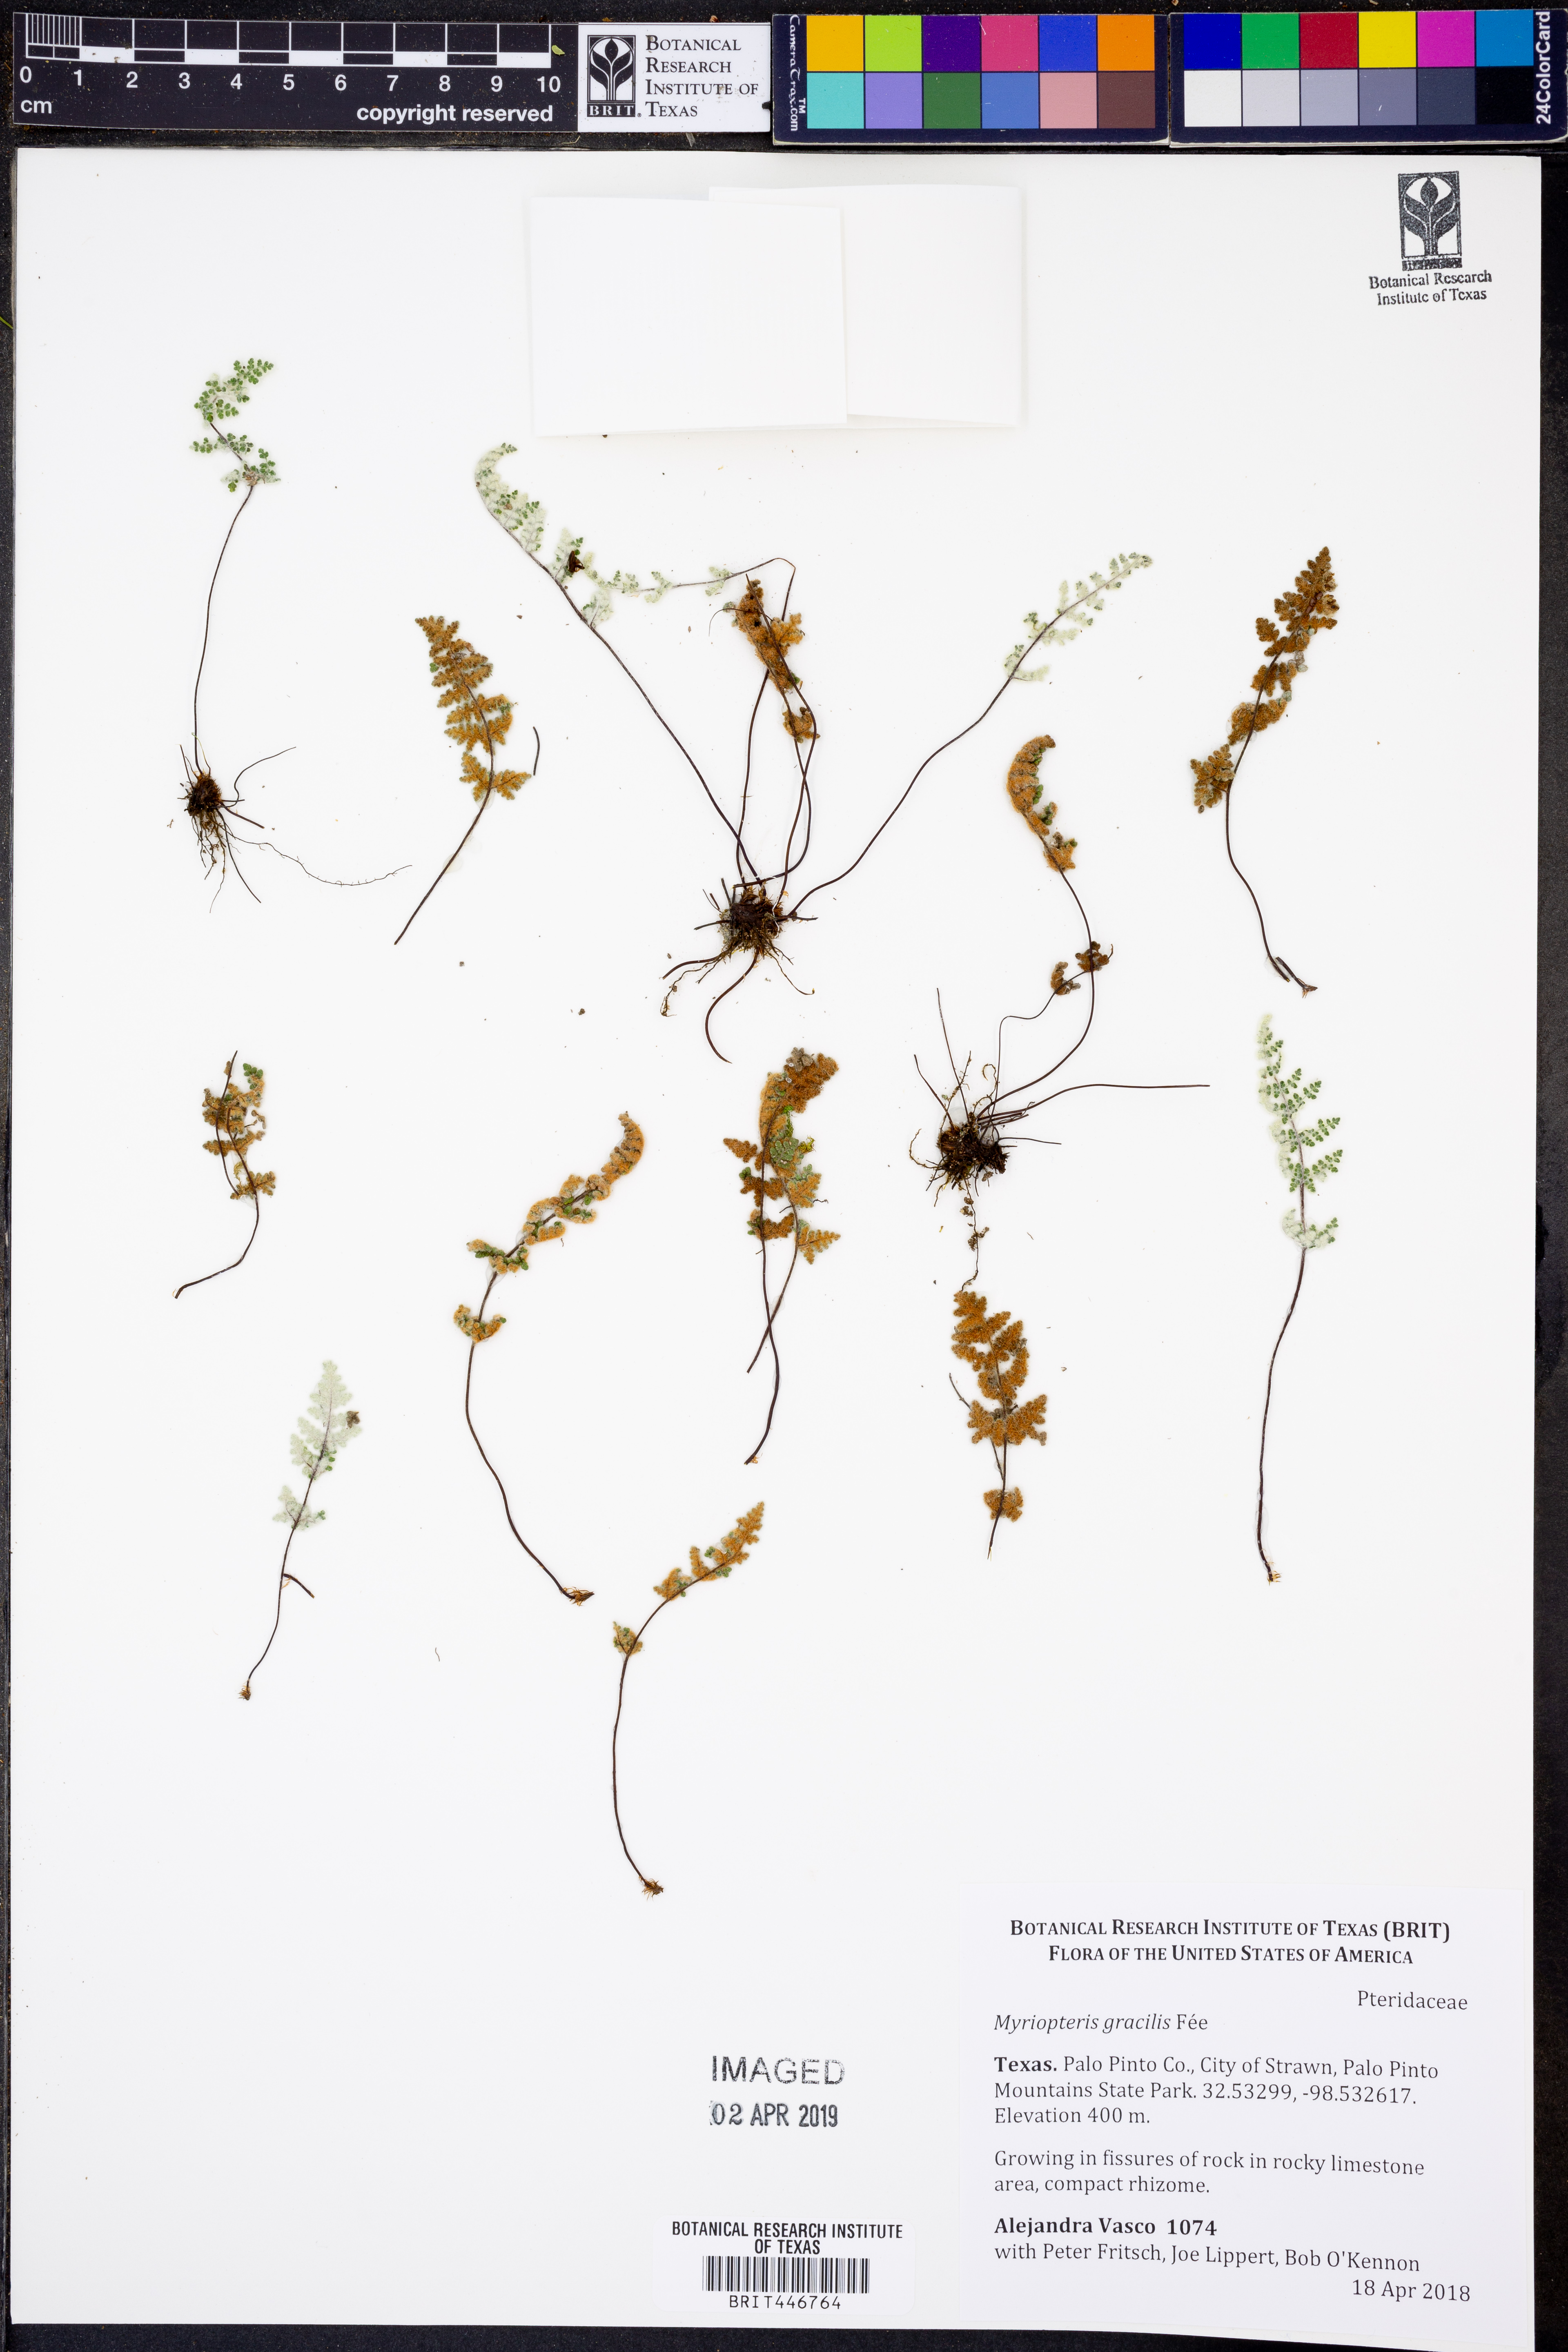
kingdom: Plantae
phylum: Tracheophyta
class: Polypodiopsida
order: Polypodiales
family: Pteridaceae
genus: Myriopteris
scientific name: Myriopteris gracilis
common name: Fee's lip fern
